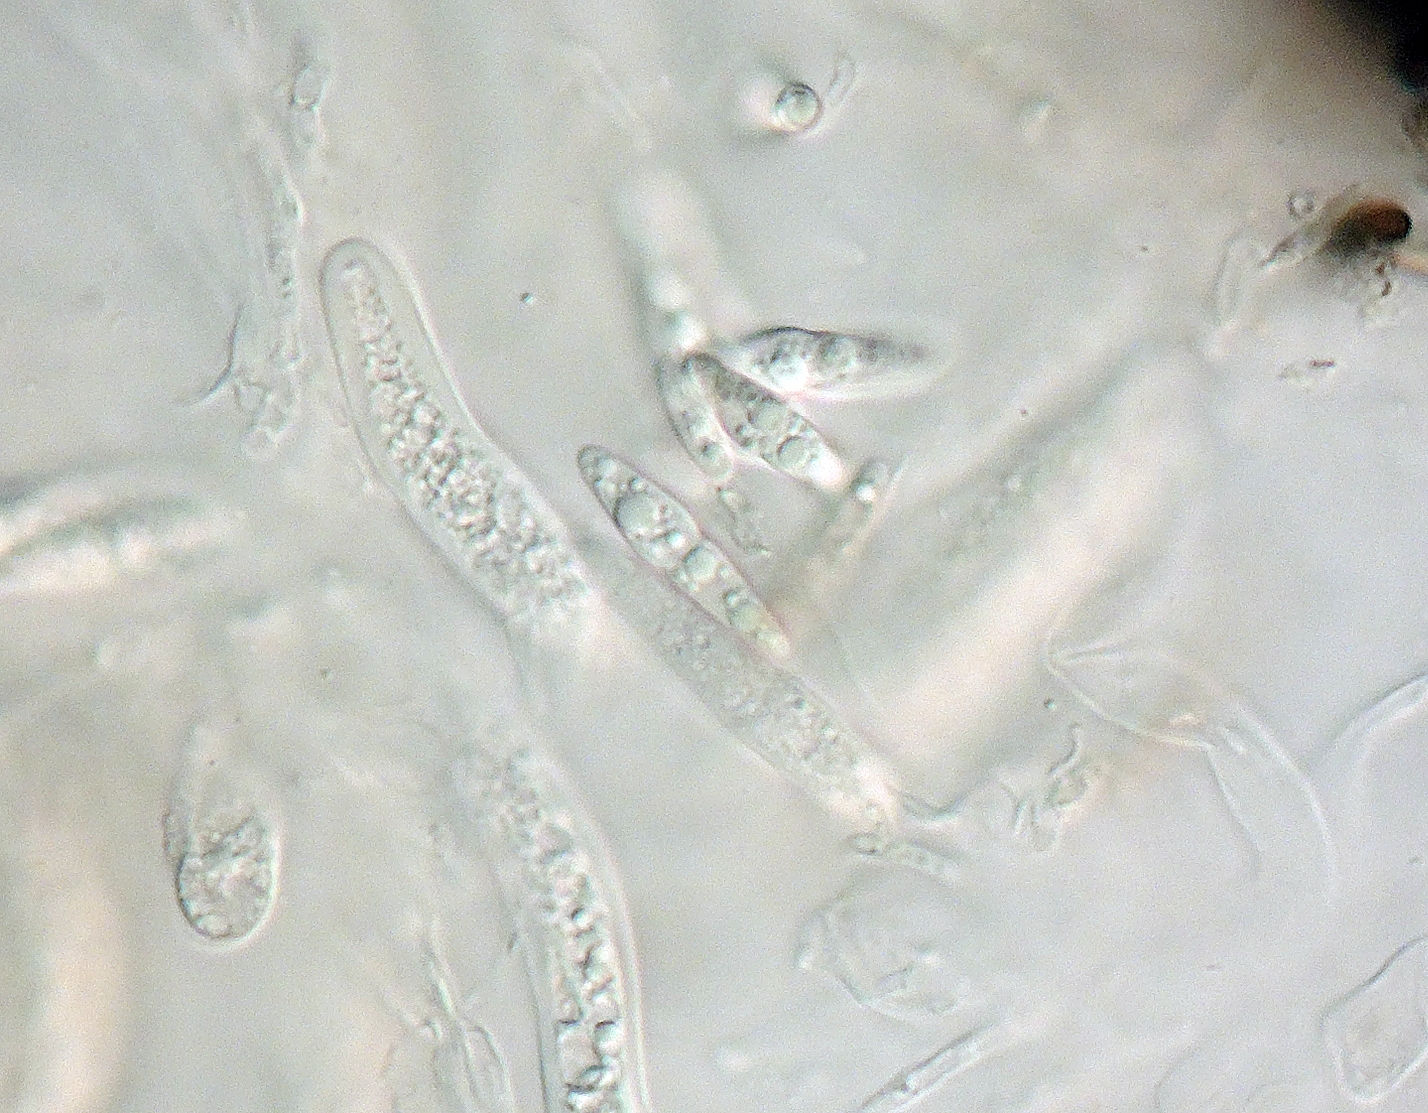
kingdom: Fungi
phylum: Ascomycota
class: Dothideomycetes
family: Pseudoperisporiaceae
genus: Nematostoma
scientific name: Nematostoma parasiticum
